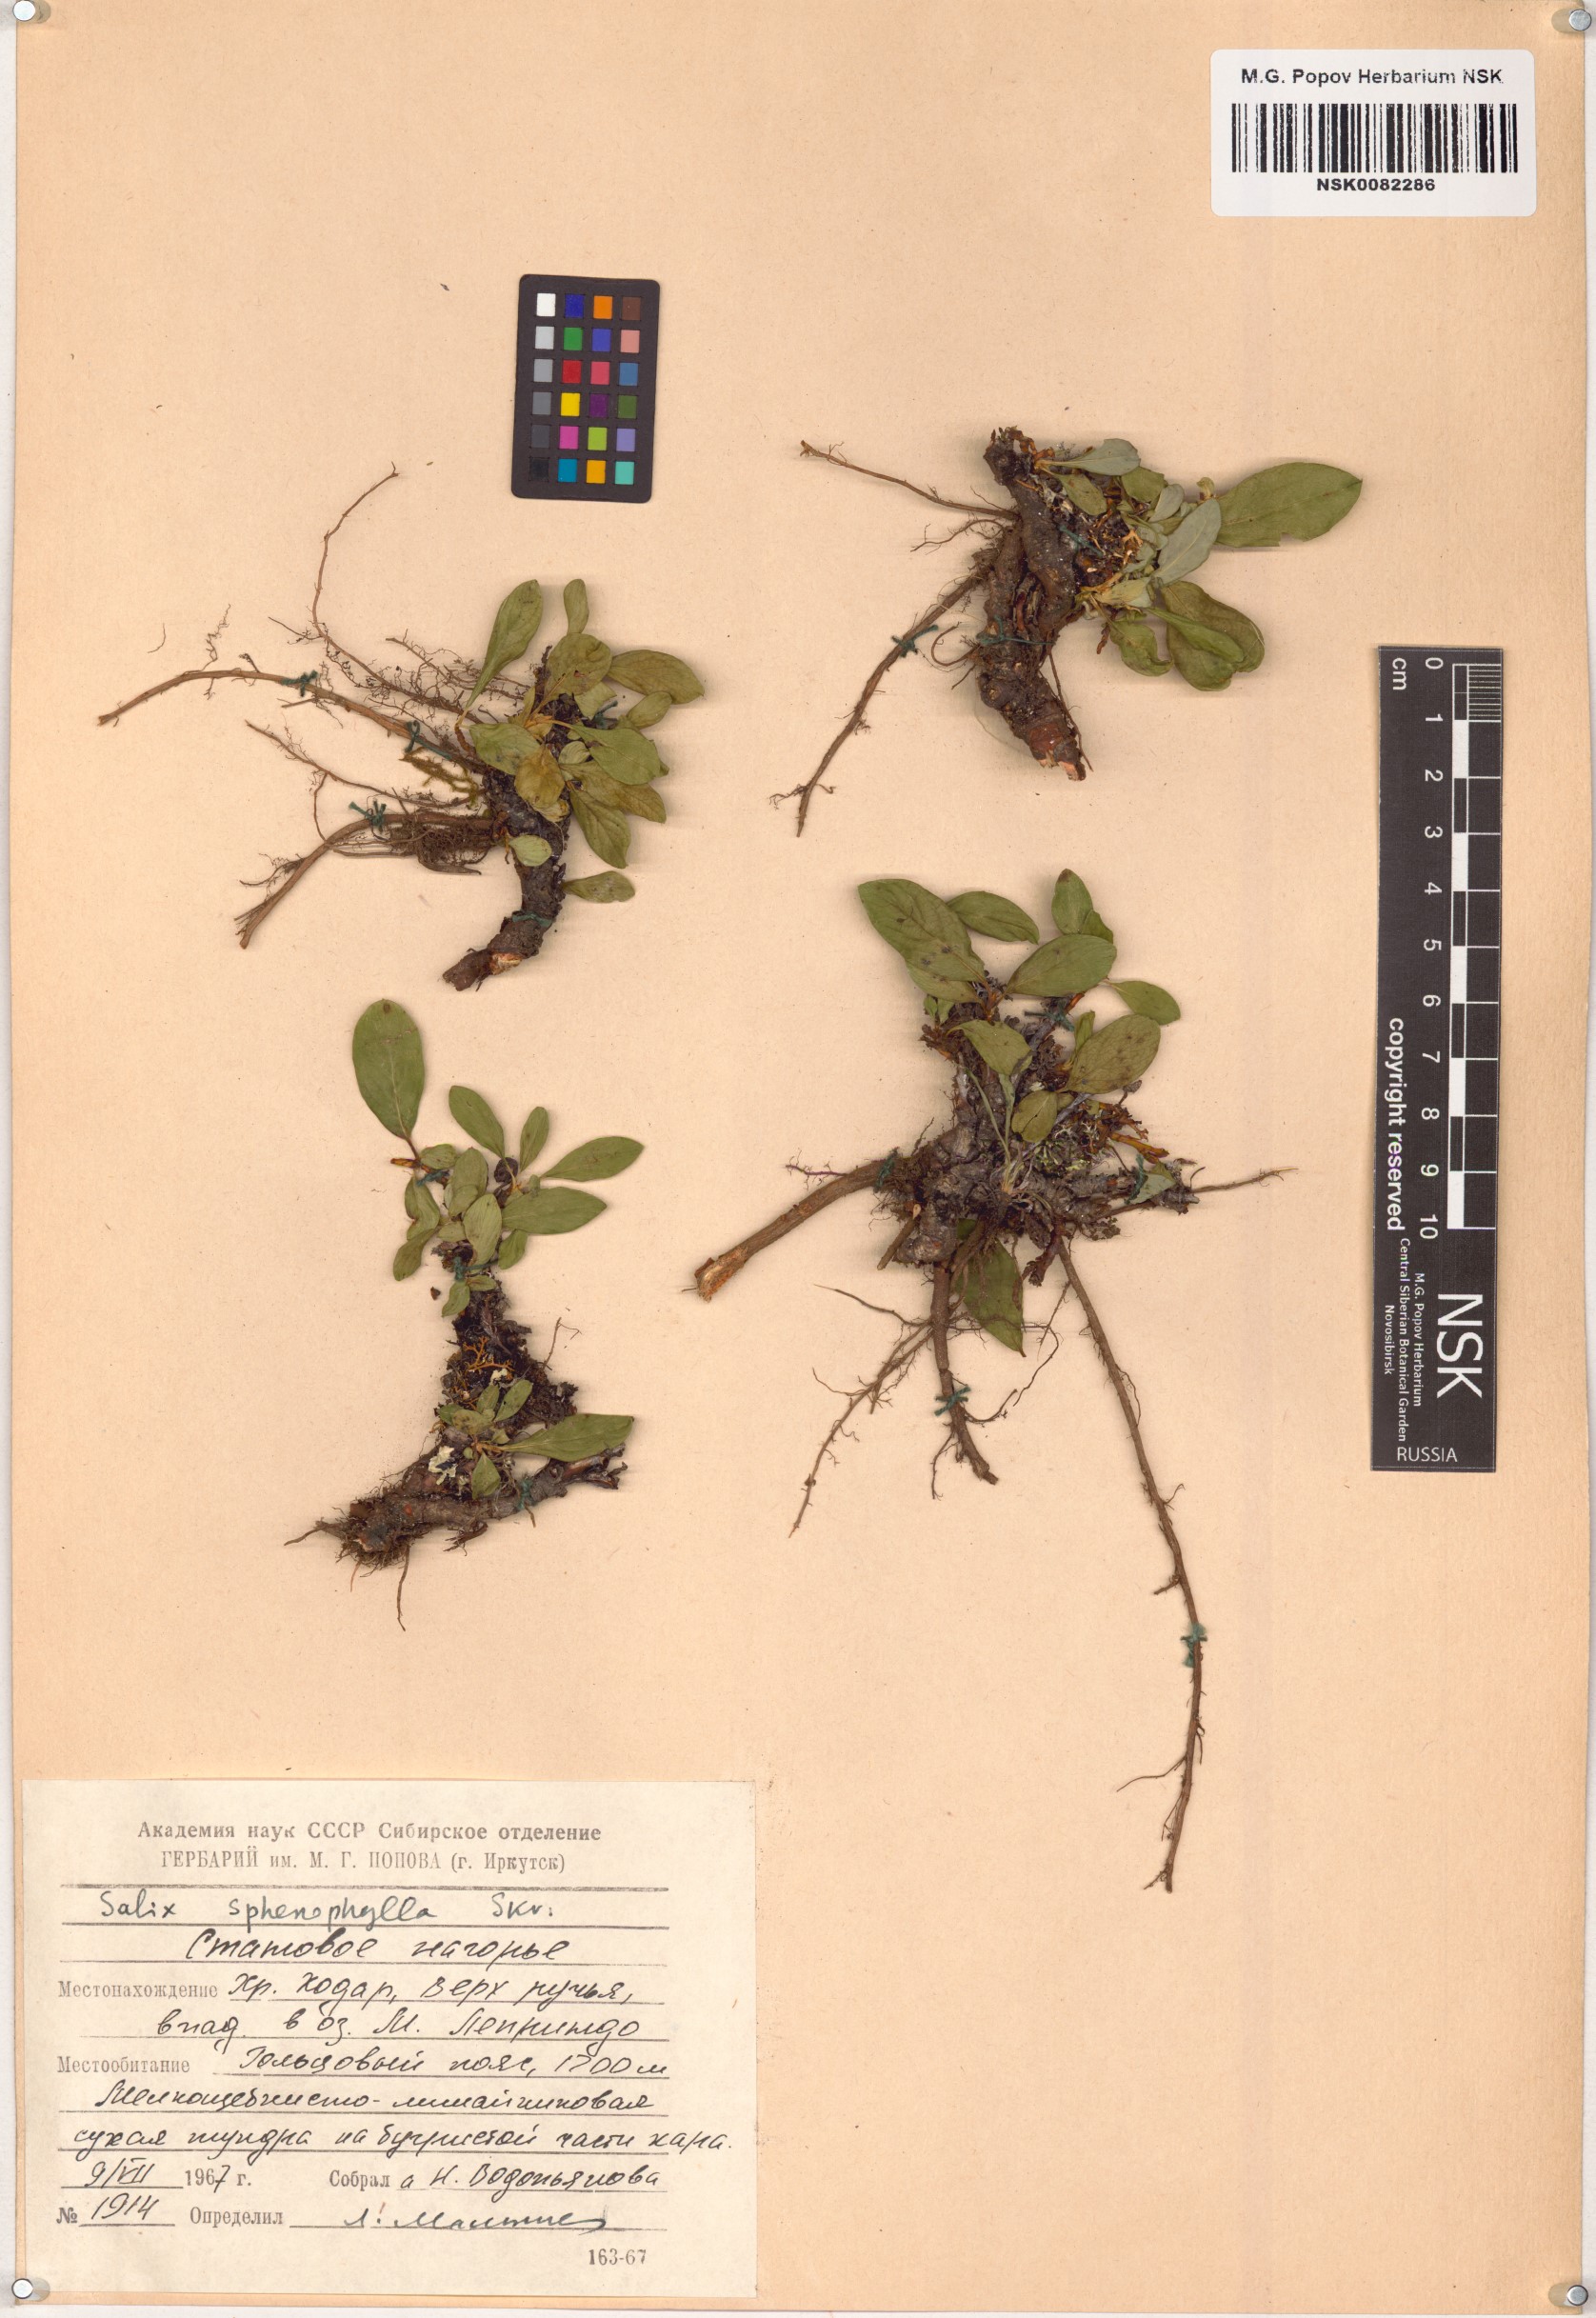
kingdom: Plantae
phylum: Tracheophyta
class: Magnoliopsida
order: Malpighiales
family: Salicaceae
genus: Salix
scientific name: Salix sphenophylla
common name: Wedge-leaved willow
